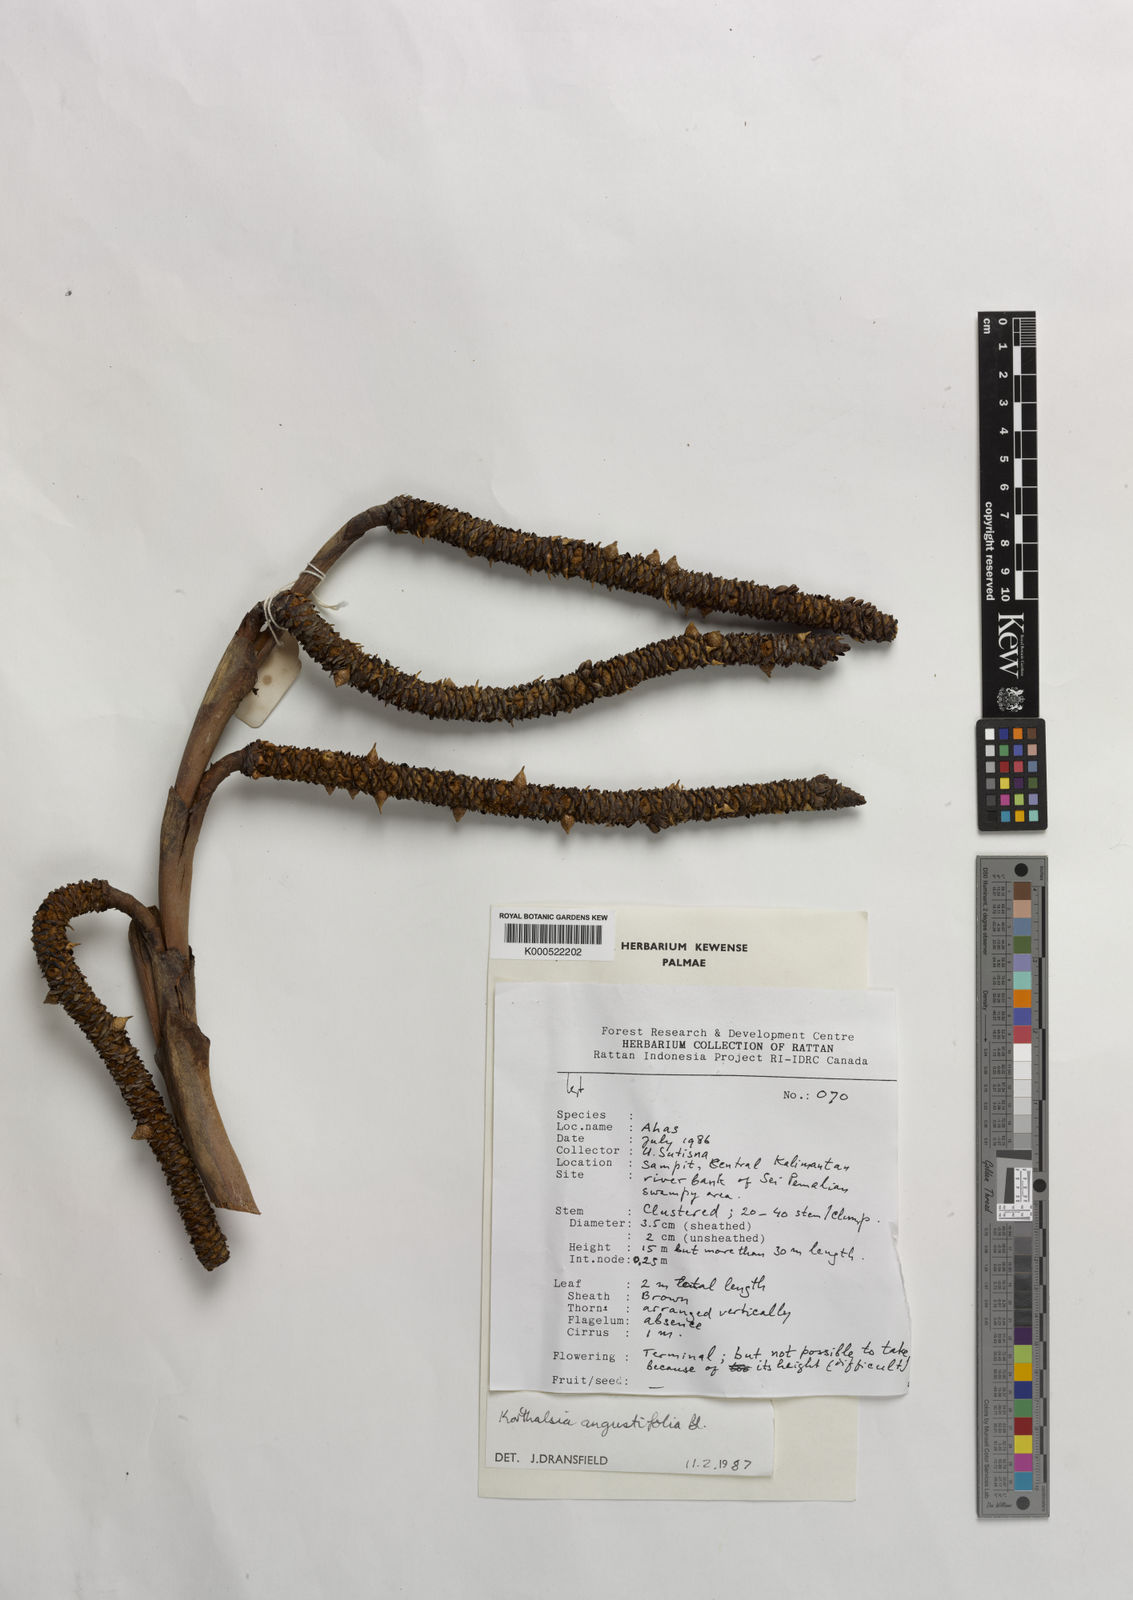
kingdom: Plantae
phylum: Tracheophyta
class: Liliopsida
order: Arecales
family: Arecaceae
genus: Korthalsia
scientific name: Korthalsia echinometra
